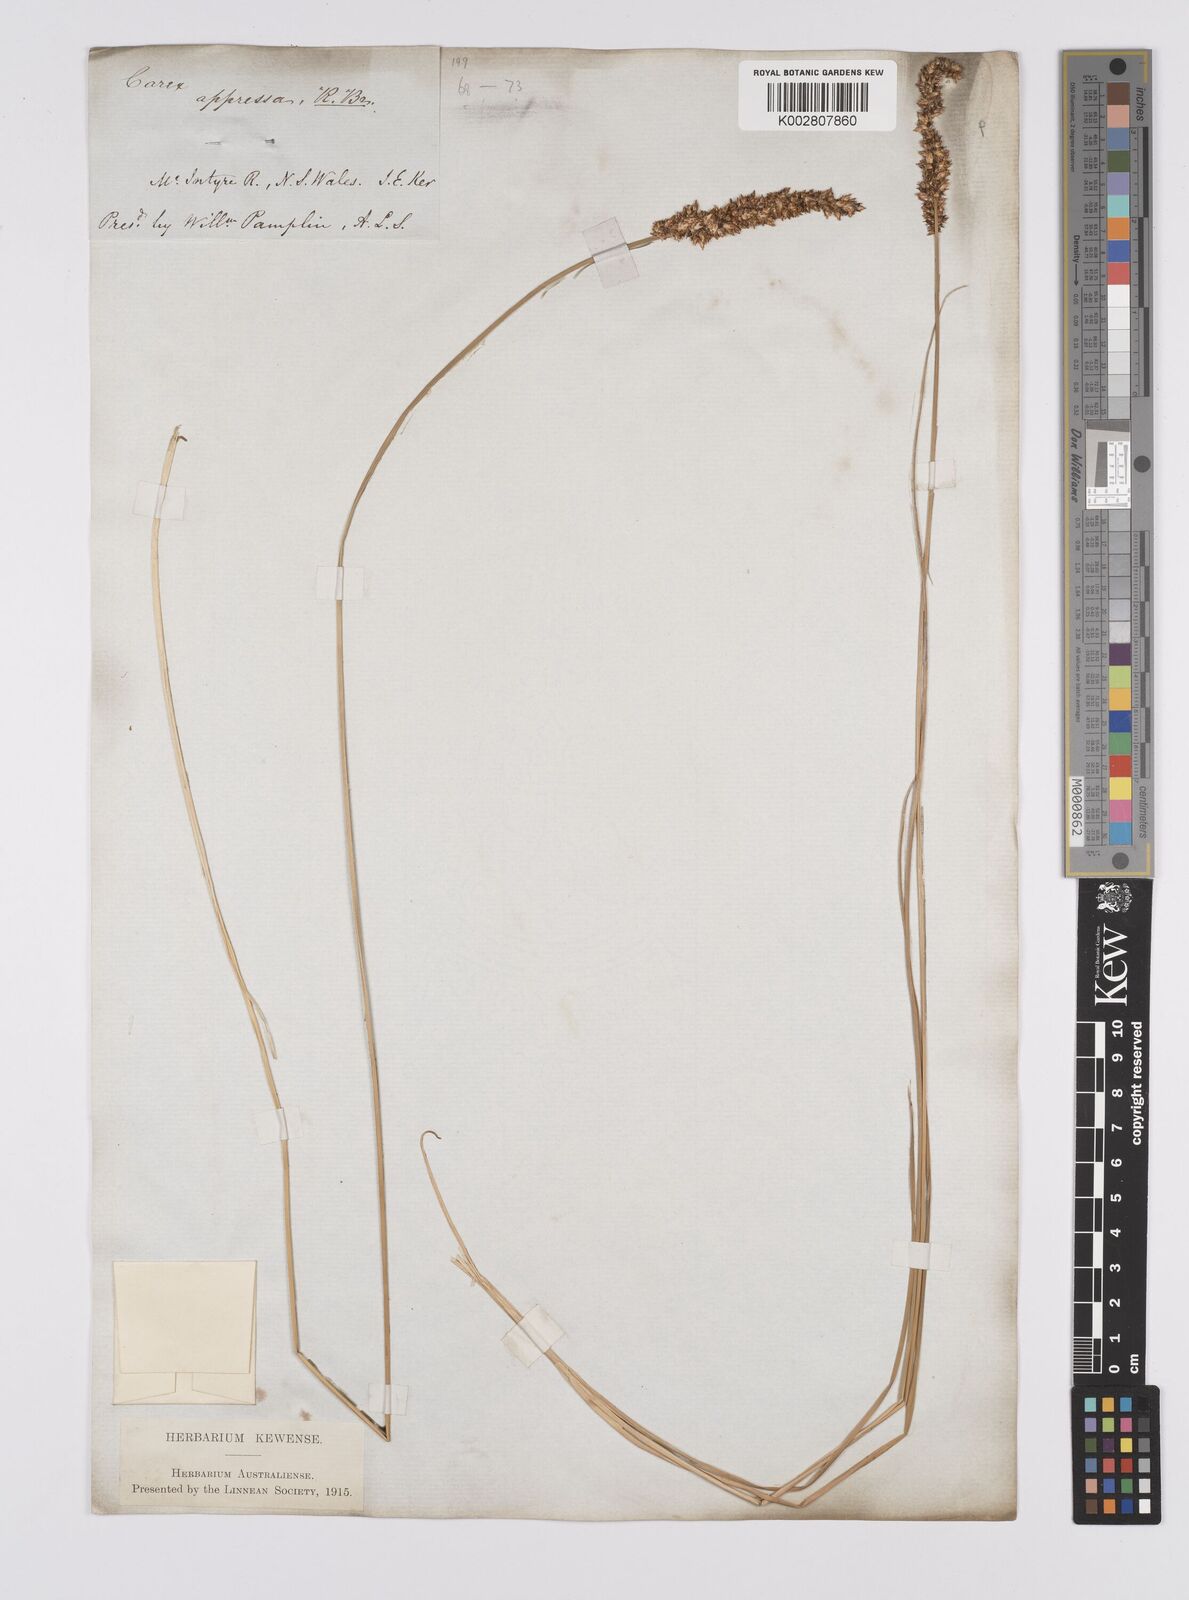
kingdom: Plantae
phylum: Tracheophyta
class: Liliopsida
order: Poales
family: Cyperaceae
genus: Carex
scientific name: Carex appressa
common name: Tussock sedge
